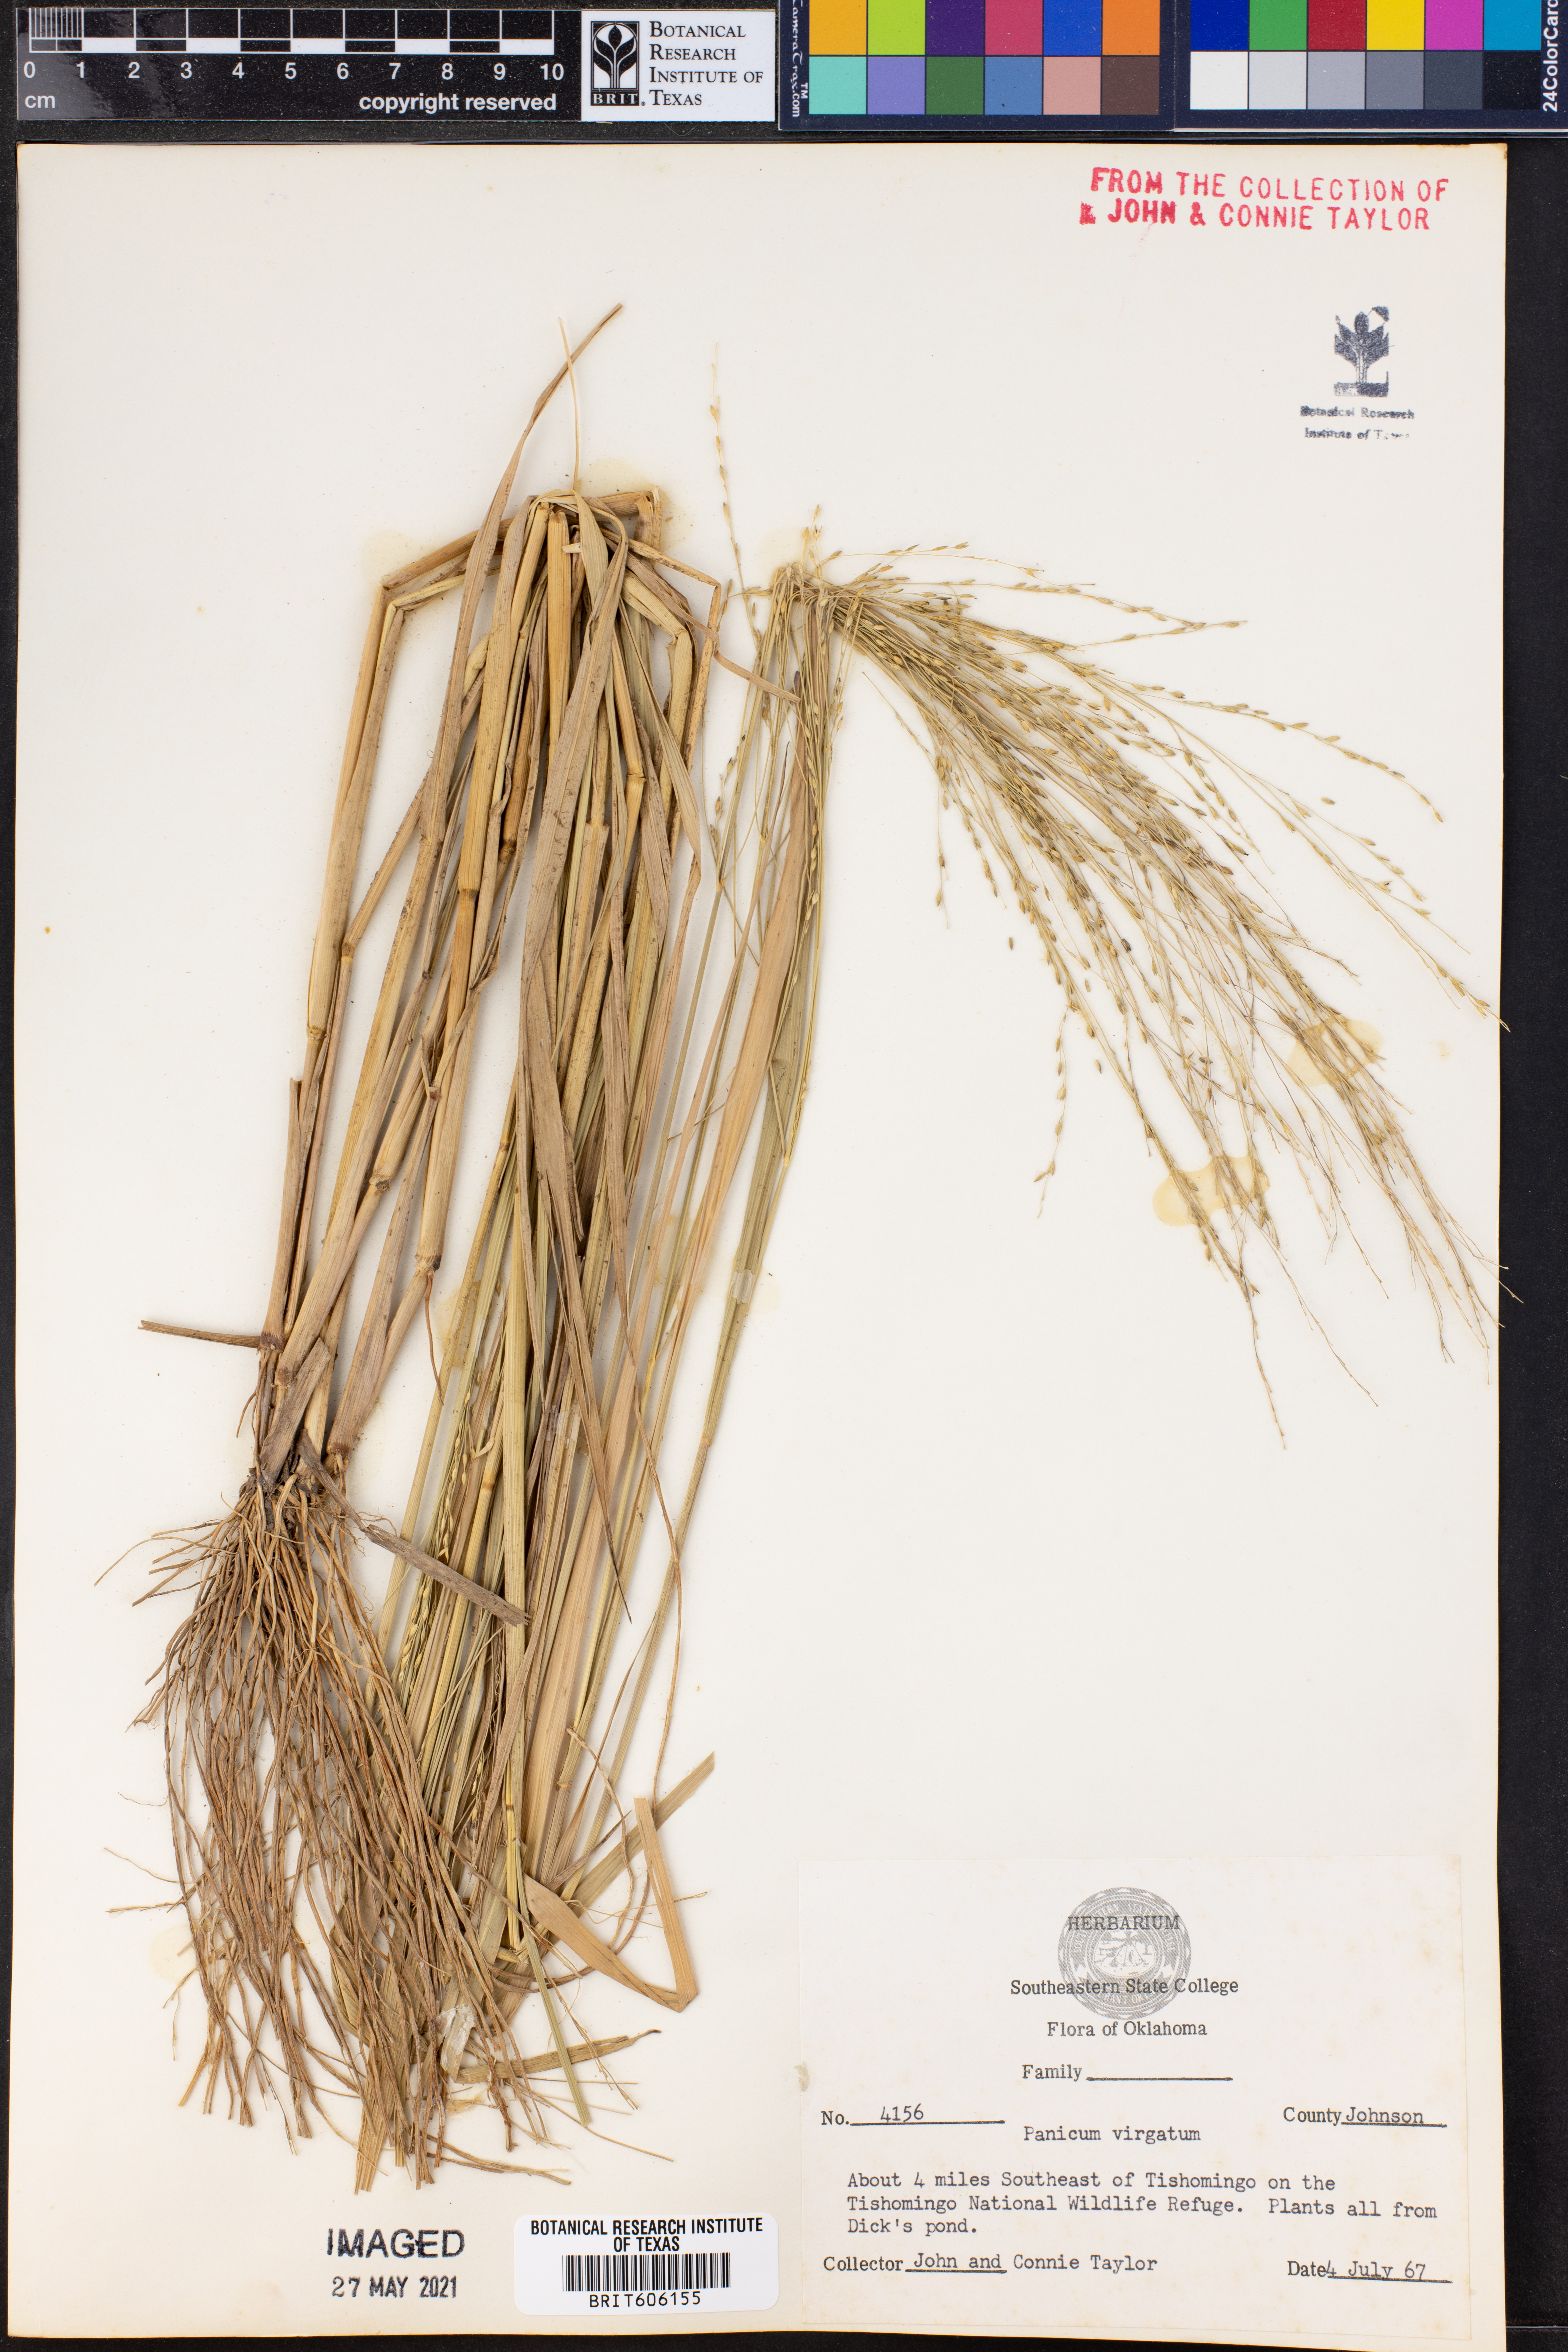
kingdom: Plantae
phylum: Tracheophyta
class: Liliopsida
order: Poales
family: Poaceae
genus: Panicum
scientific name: Panicum virgatum
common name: Switchgrass
